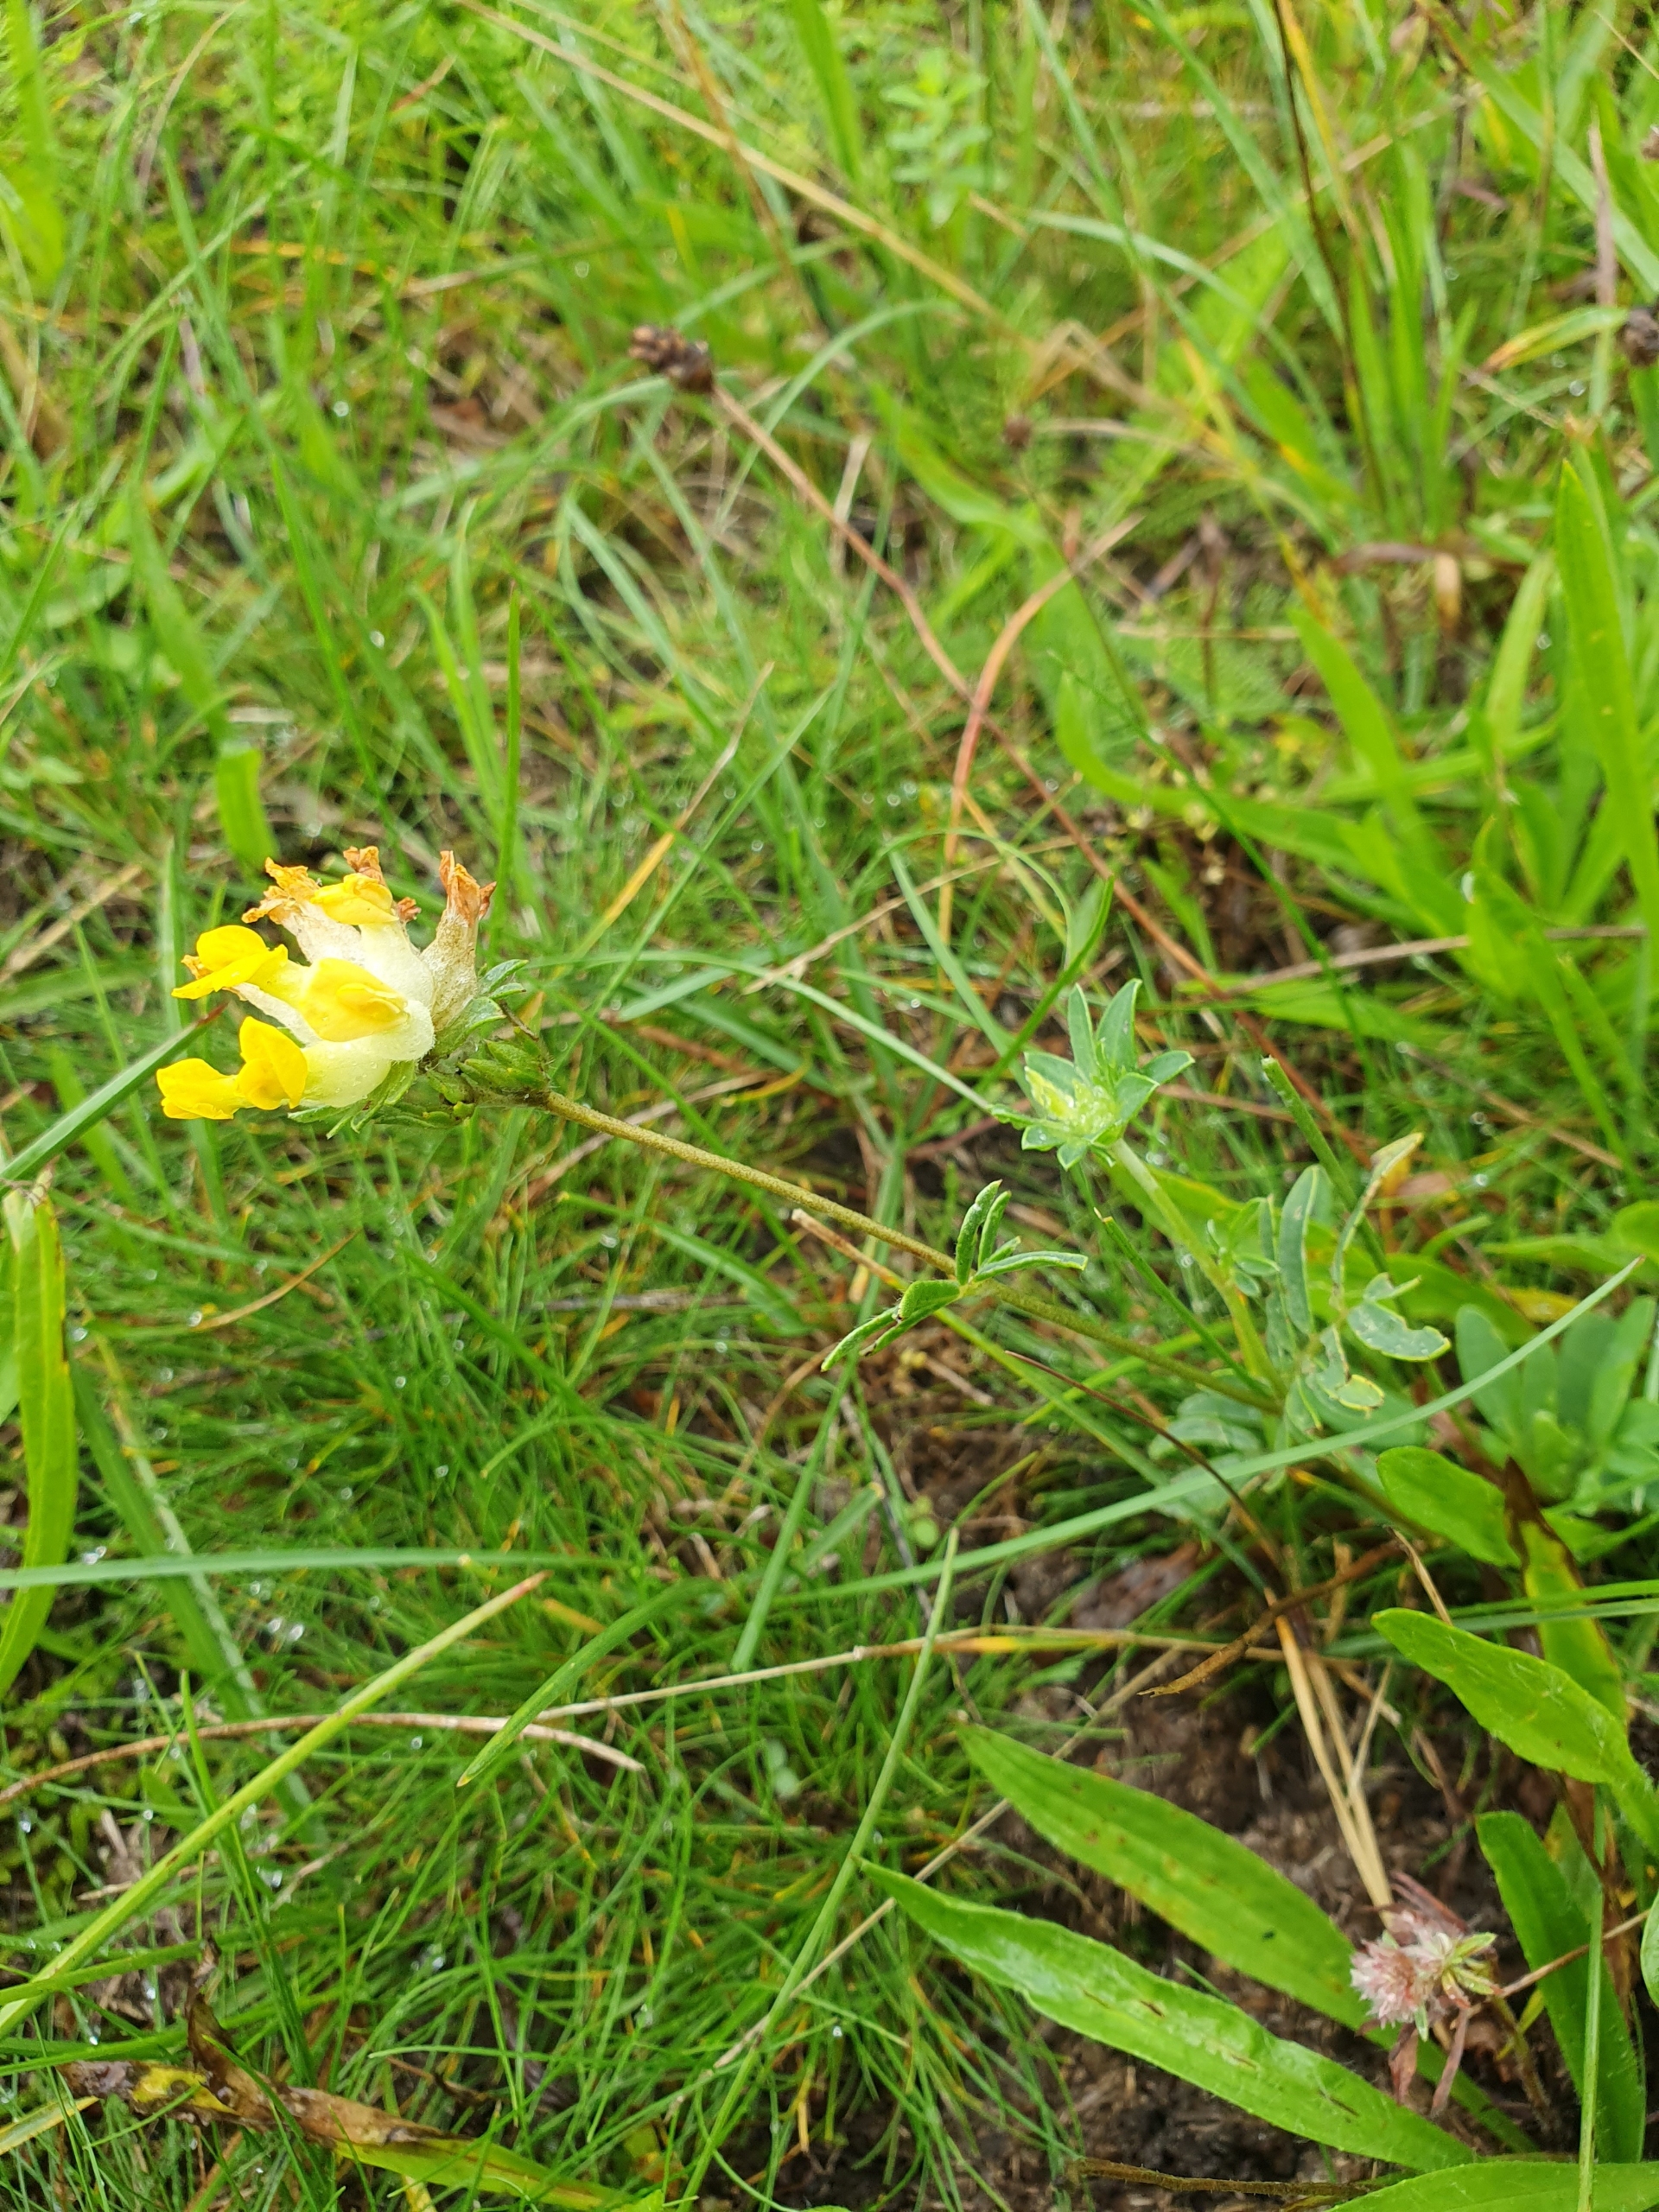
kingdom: Plantae
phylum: Tracheophyta
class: Magnoliopsida
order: Fabales
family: Fabaceae
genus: Anthyllis
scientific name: Anthyllis vulneraria
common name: Rundbælg
